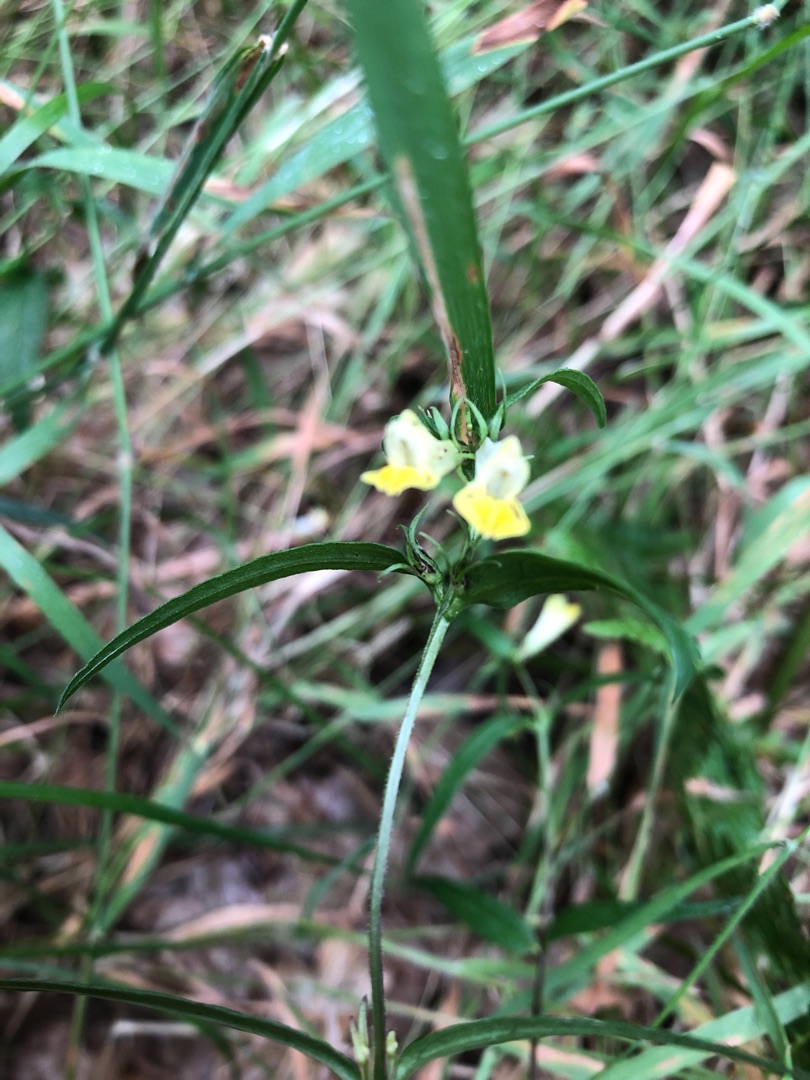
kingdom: Plantae
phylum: Tracheophyta
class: Magnoliopsida
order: Lamiales
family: Orobanchaceae
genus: Melampyrum
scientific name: Melampyrum pratense
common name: Almindelig kohvede
